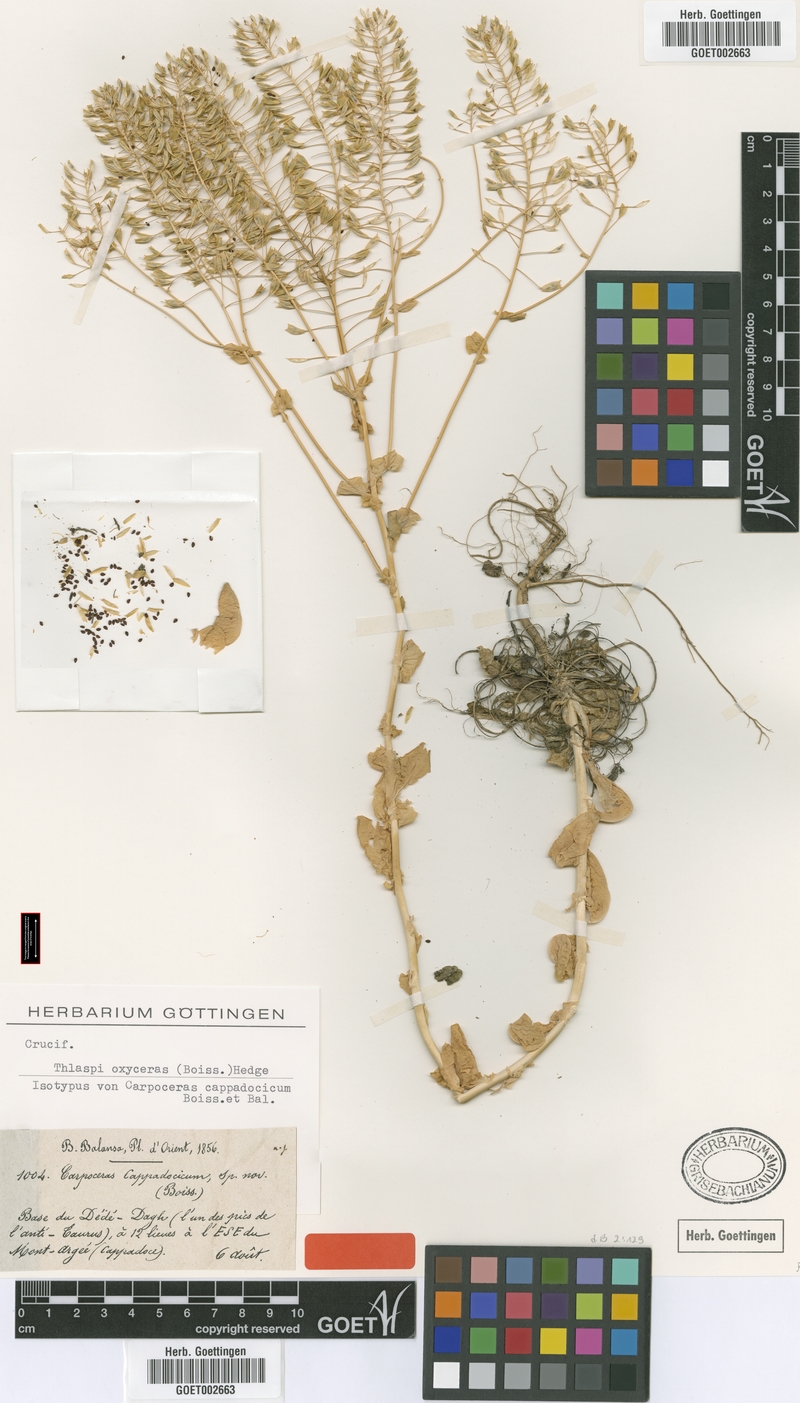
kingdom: Plantae
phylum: Tracheophyta
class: Magnoliopsida
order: Brassicales
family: Brassicaceae
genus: Noccaea
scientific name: Noccaea oxyceras
